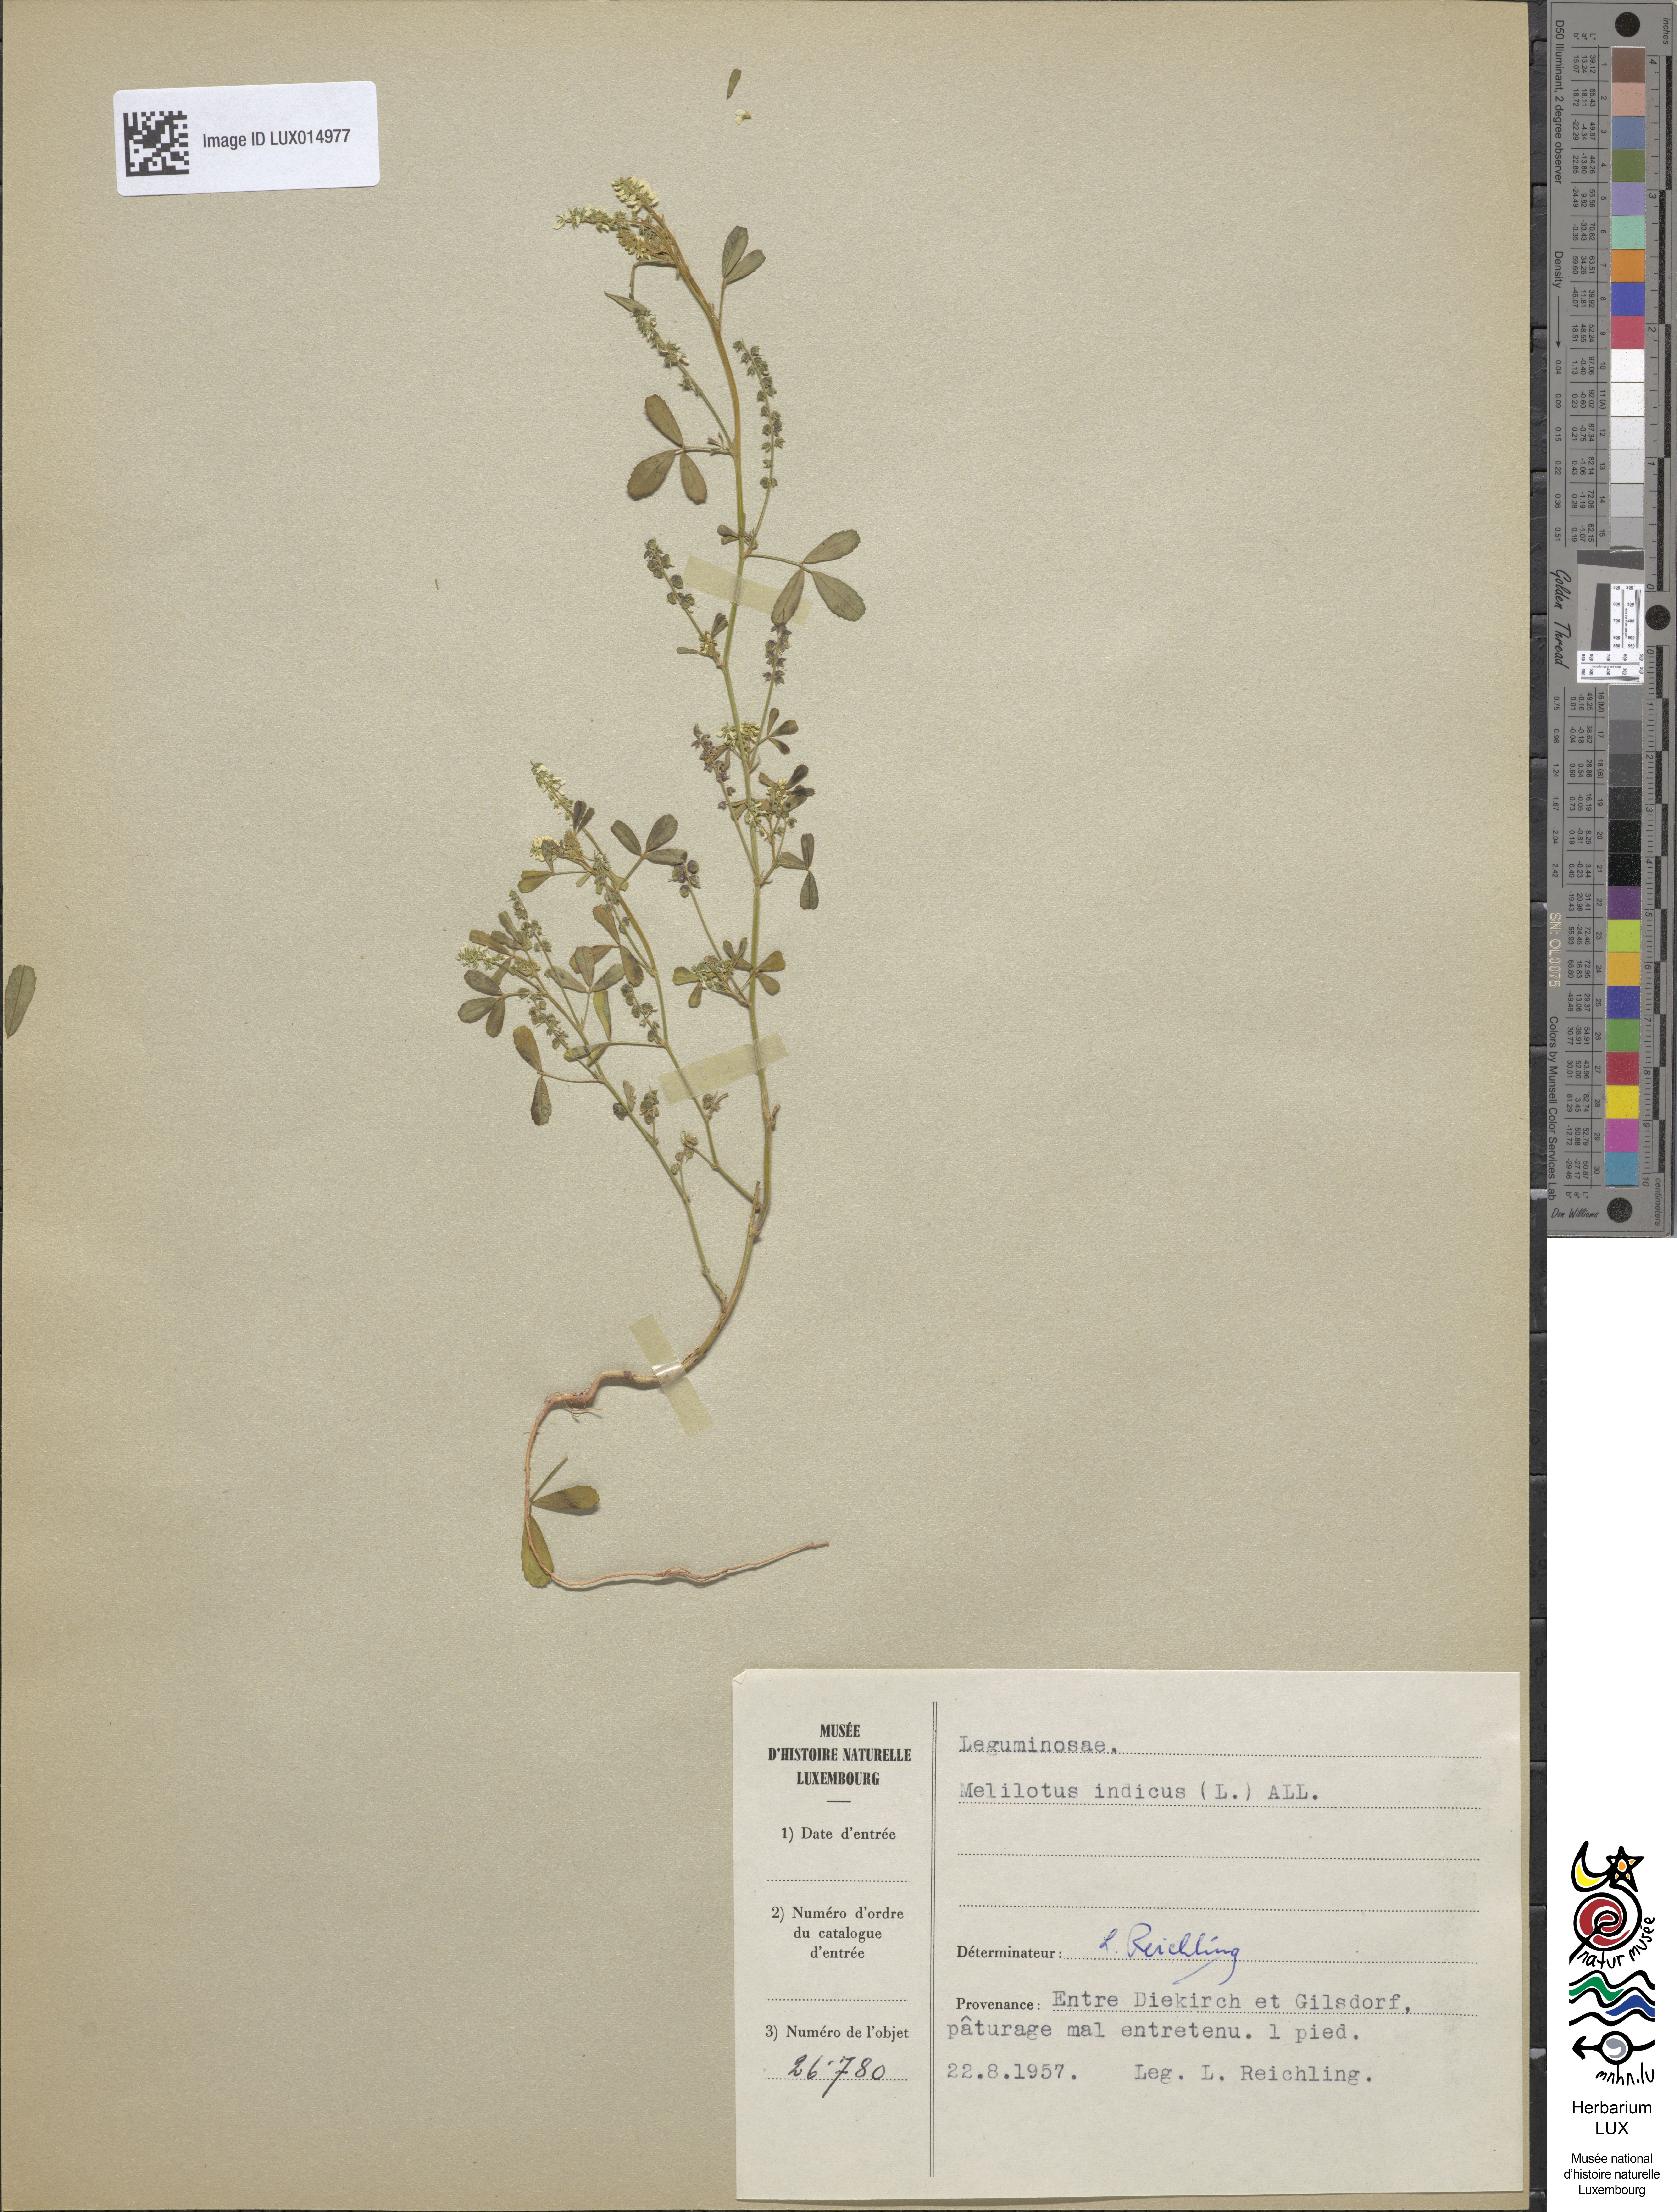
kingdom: Plantae
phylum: Tracheophyta
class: Magnoliopsida
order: Fabales
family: Fabaceae
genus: Melilotus
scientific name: Melilotus indicus
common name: Small melilot
